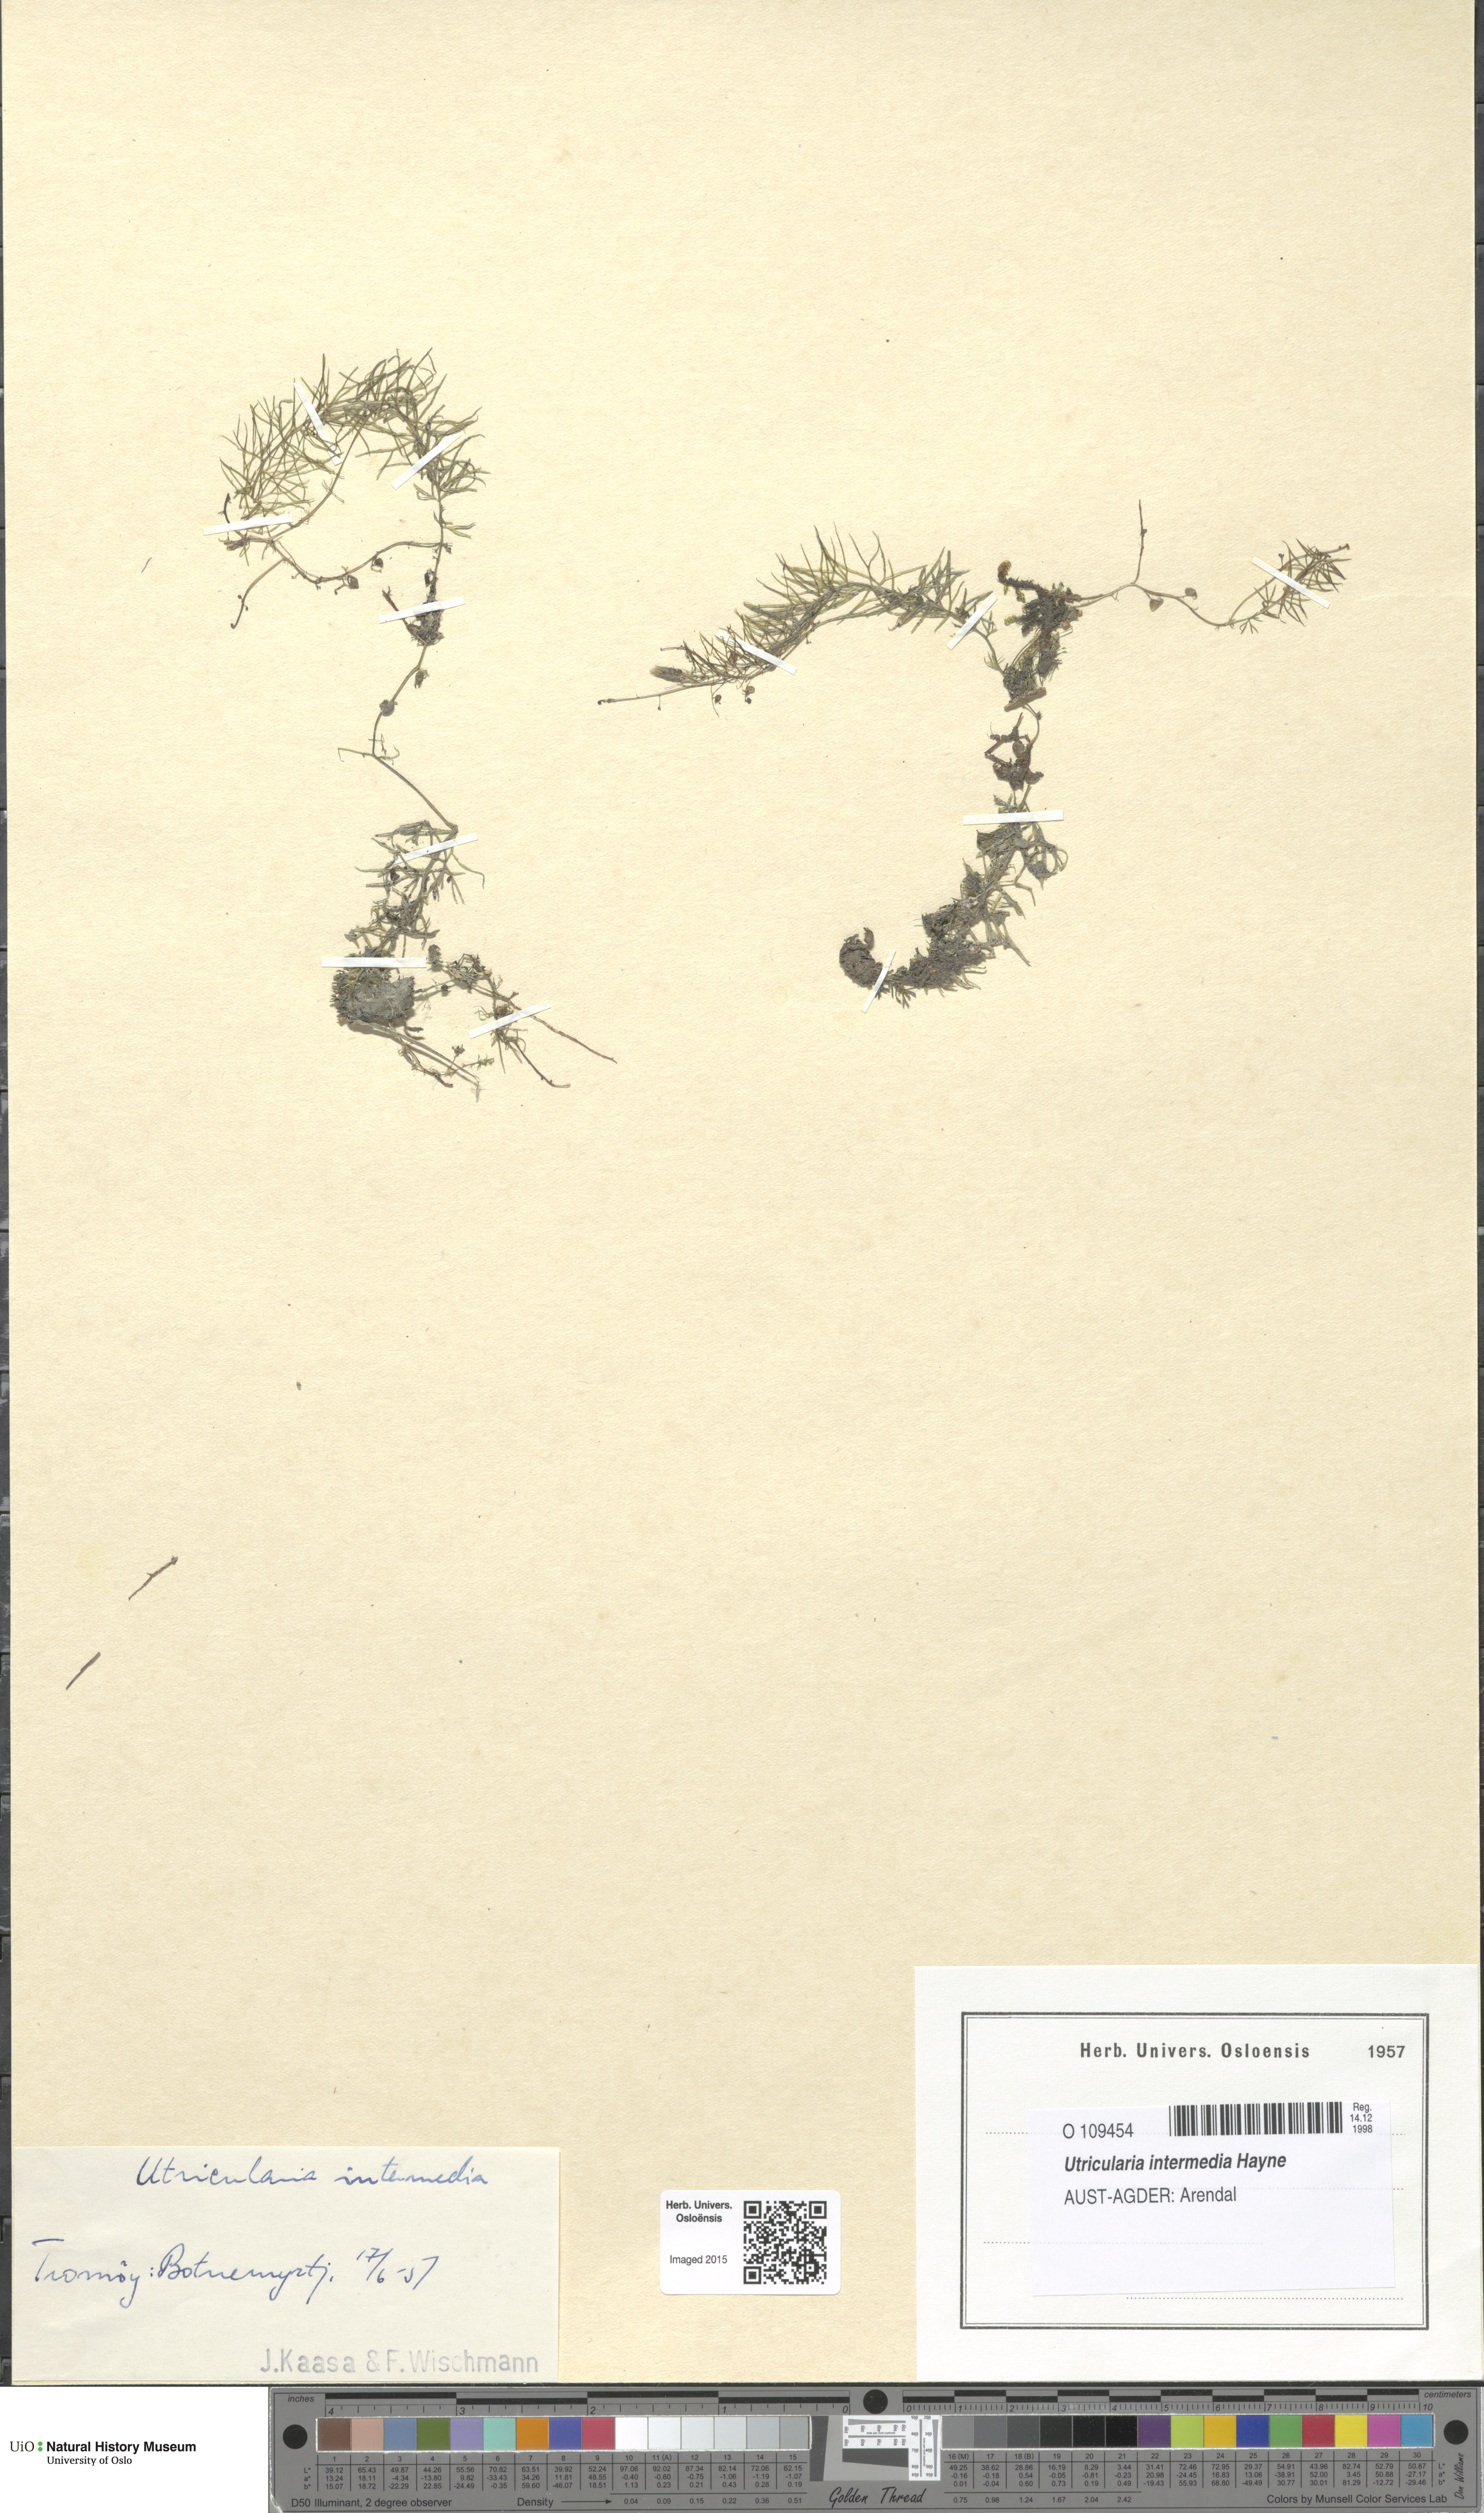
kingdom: Plantae
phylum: Tracheophyta
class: Magnoliopsida
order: Lamiales
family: Lentibulariaceae
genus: Utricularia
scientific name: Utricularia intermedia
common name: Intermediate bladderwort
